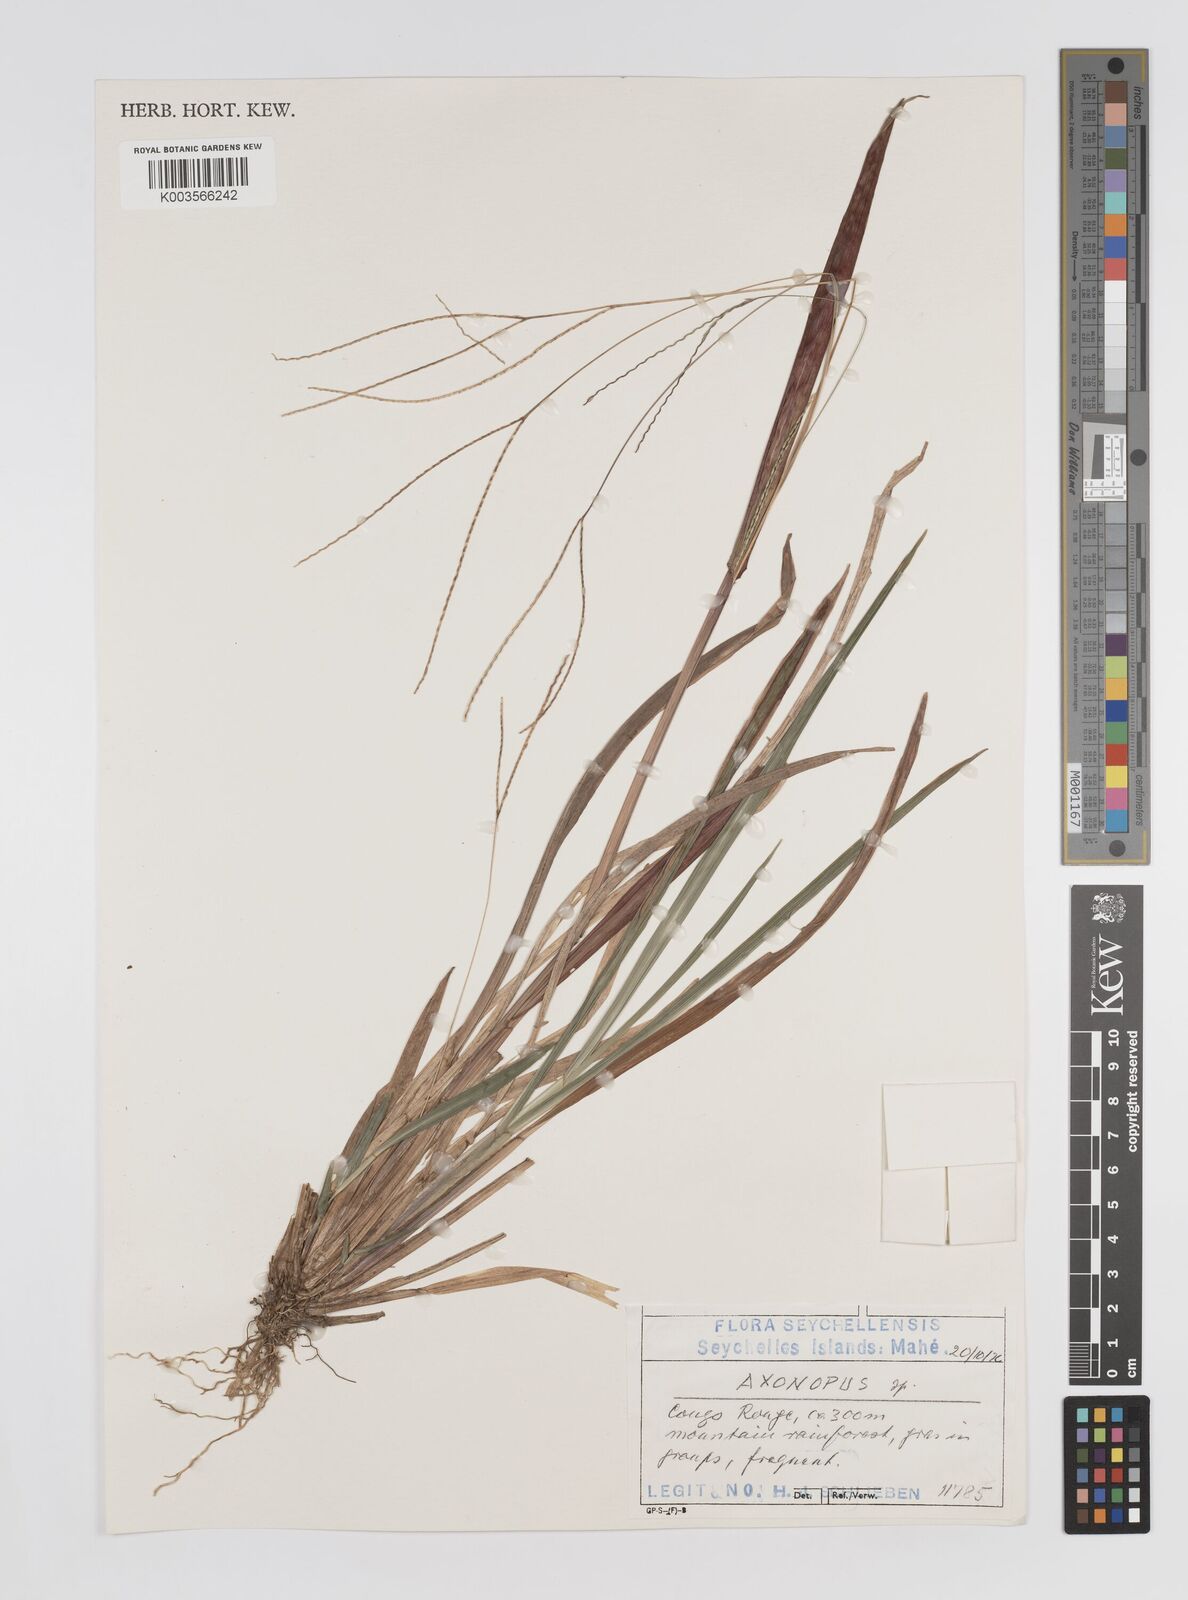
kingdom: Plantae
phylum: Tracheophyta
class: Liliopsida
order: Poales
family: Poaceae
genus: Axonopus
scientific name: Axonopus compressus
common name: American carpet grass
